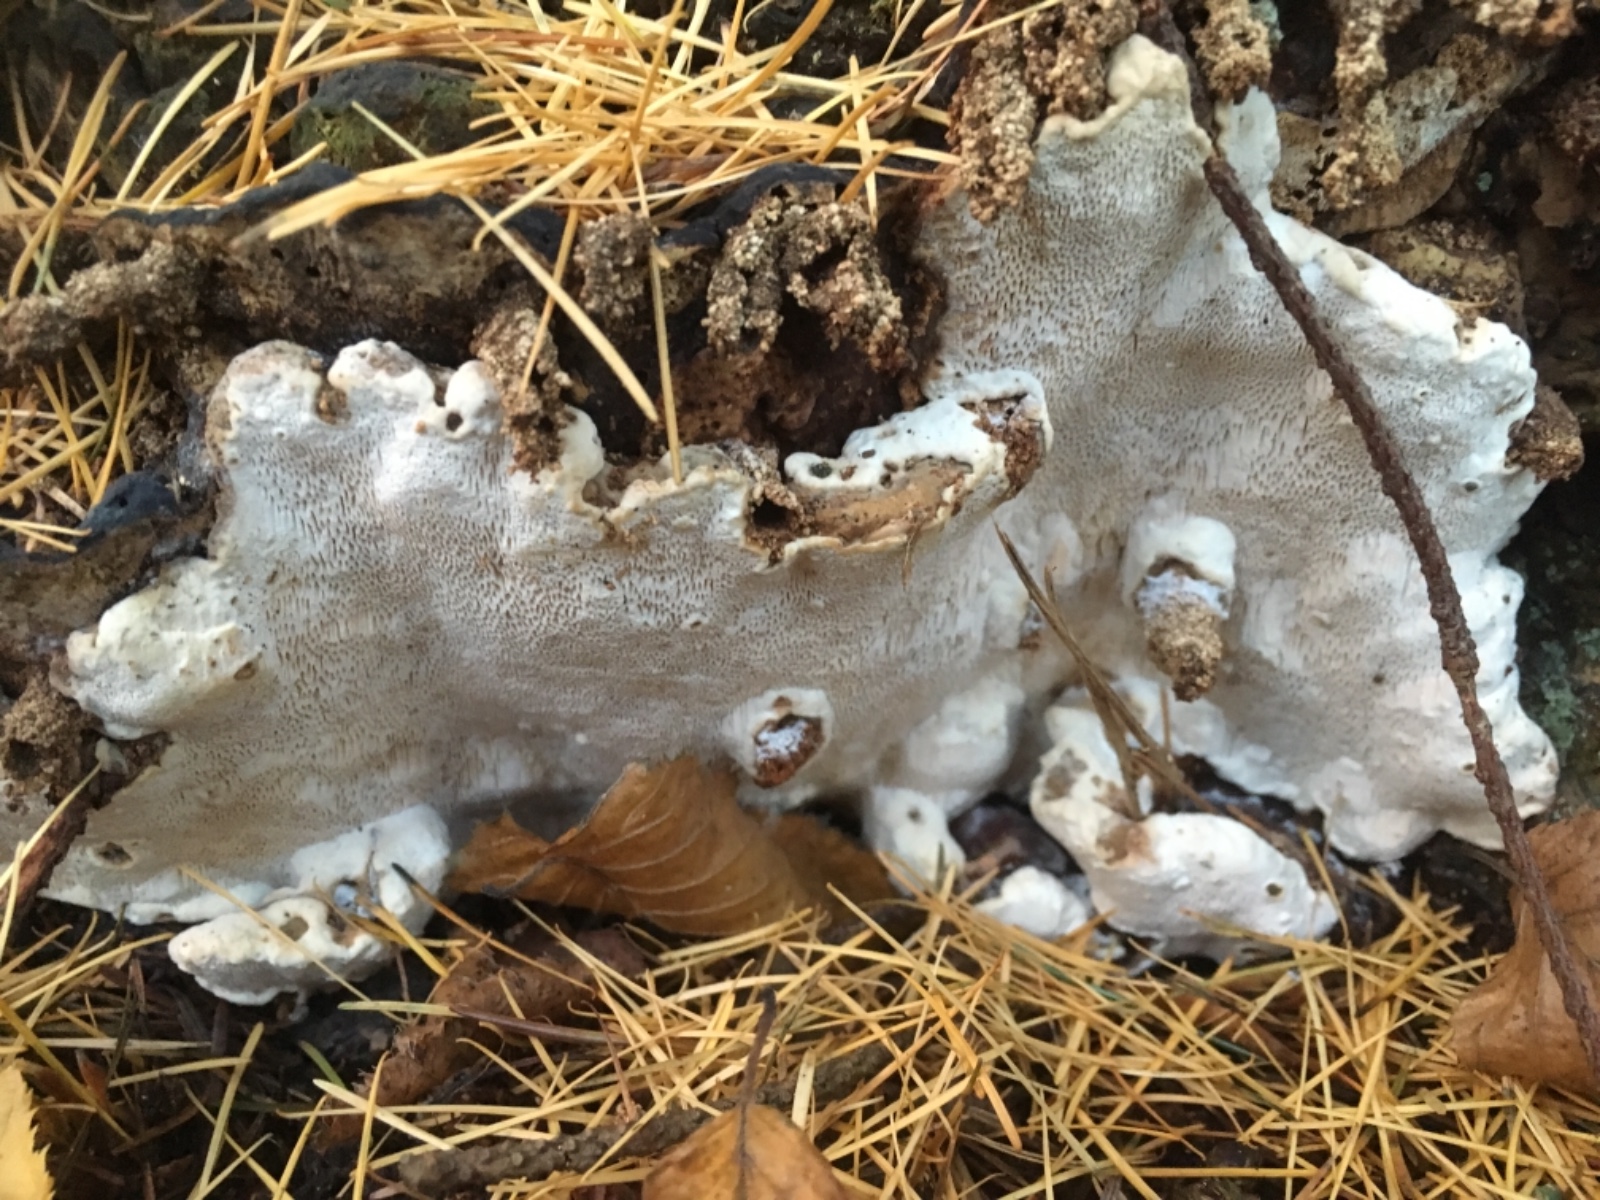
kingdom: Fungi
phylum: Basidiomycota
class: Agaricomycetes
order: Russulales
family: Bondarzewiaceae
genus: Heterobasidion
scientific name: Heterobasidion annosum
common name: almindelig rodfordærver
